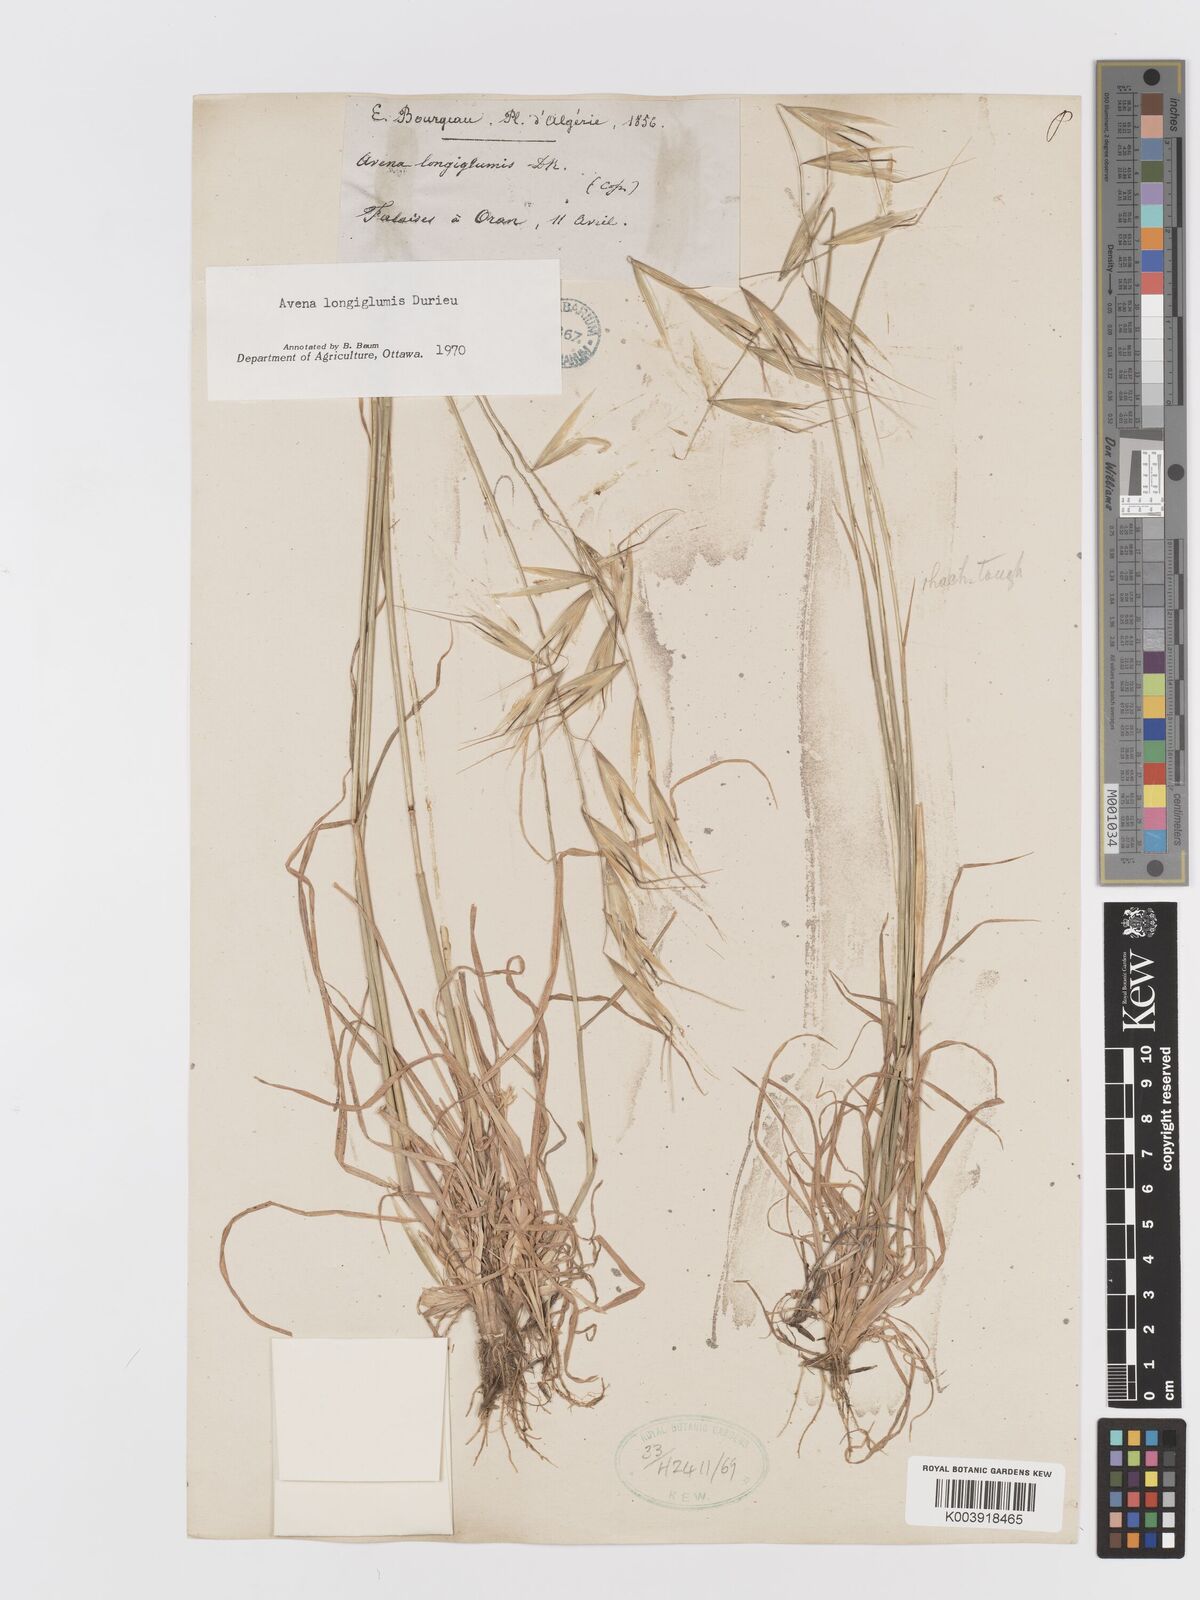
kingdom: Plantae
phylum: Tracheophyta
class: Liliopsida
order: Poales
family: Poaceae
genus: Avena
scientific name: Avena longiglumis
